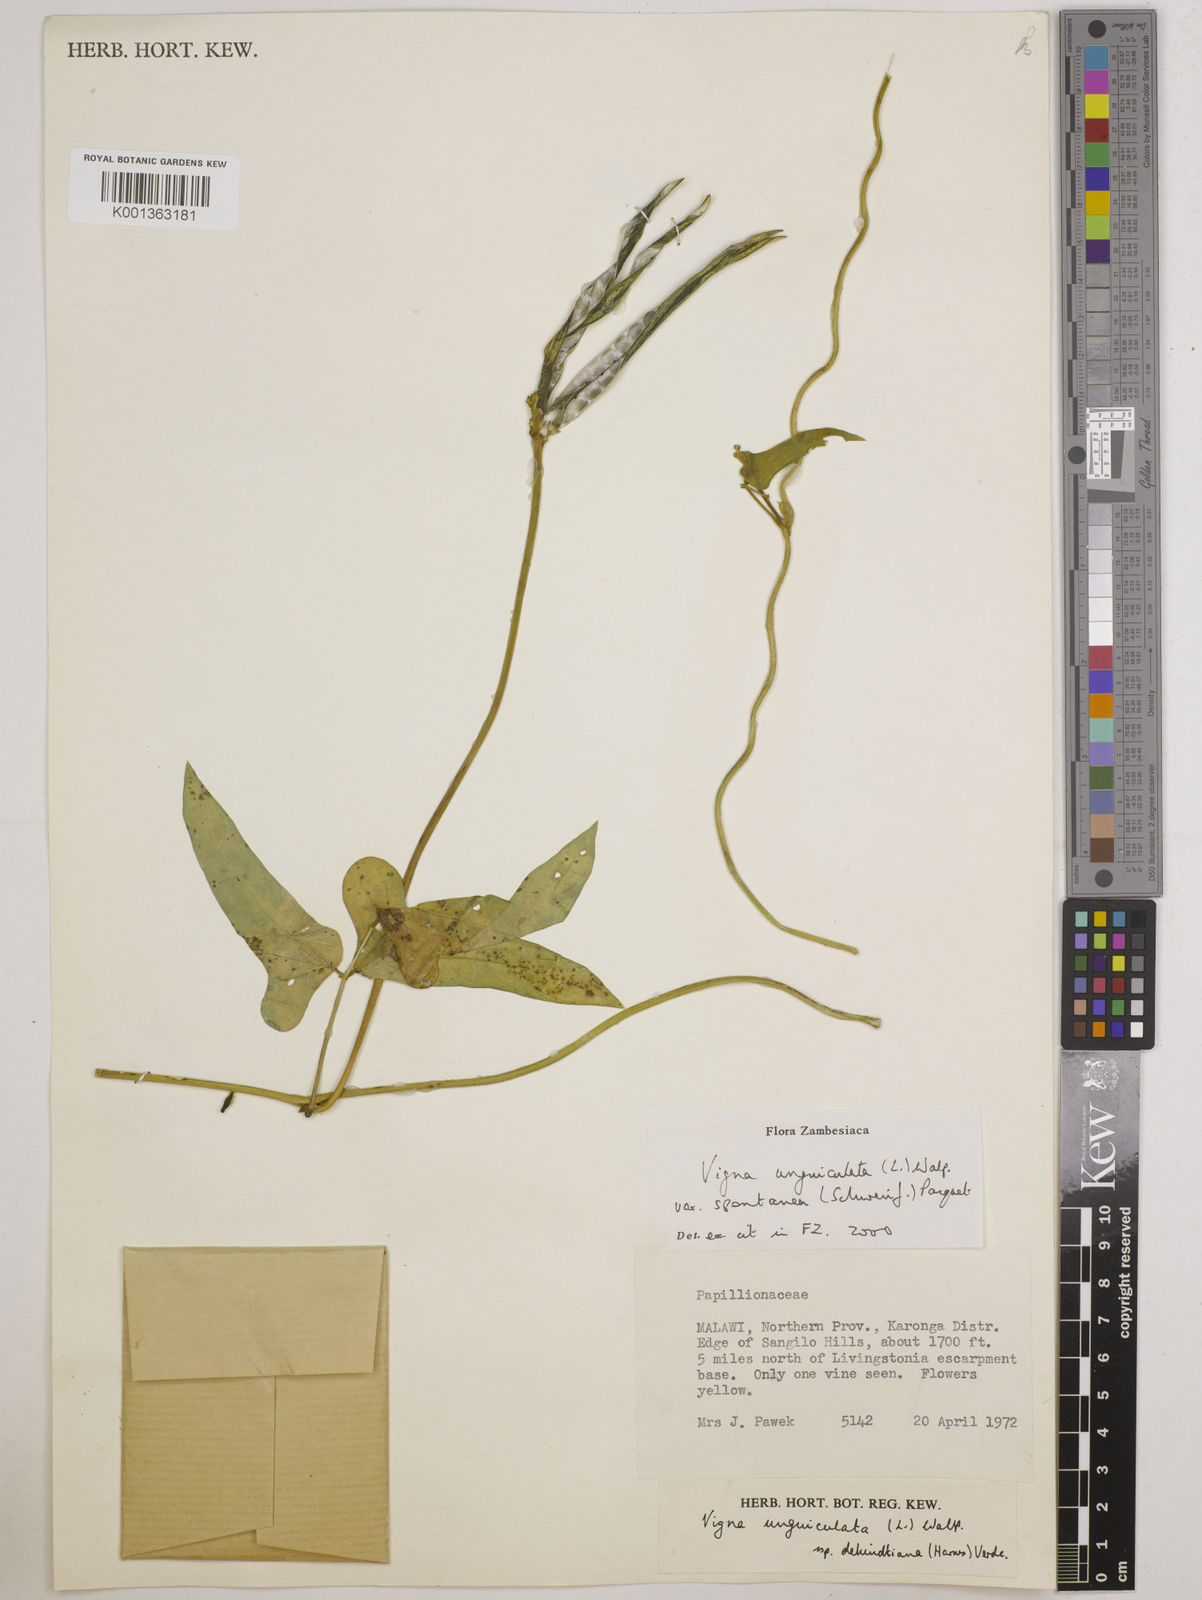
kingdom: Plantae
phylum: Tracheophyta
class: Magnoliopsida
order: Fabales
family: Fabaceae
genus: Vigna
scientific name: Vigna unguiculata
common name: Cowpea
